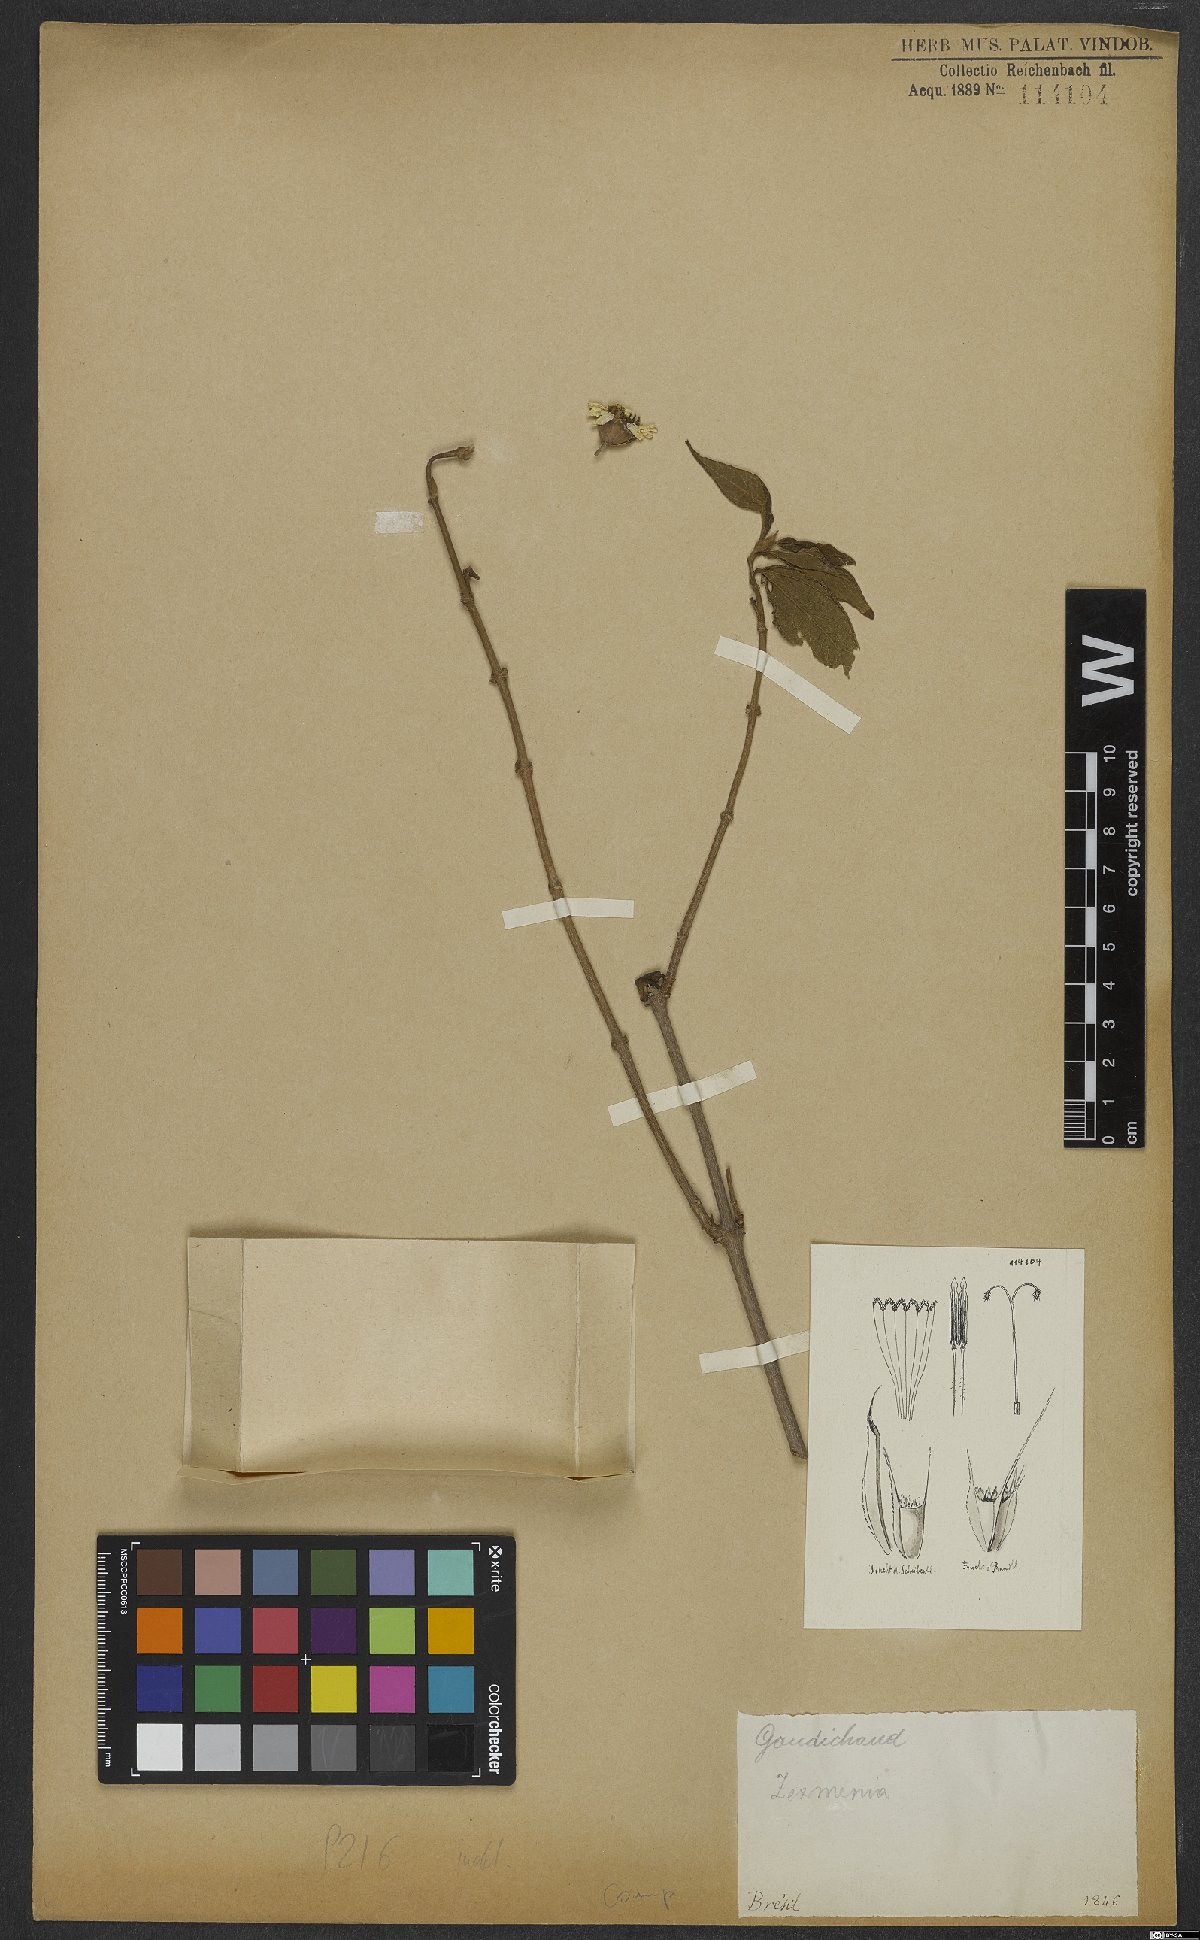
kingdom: Plantae
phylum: Tracheophyta
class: Magnoliopsida
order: Asterales
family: Asteraceae
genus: Zexmenia
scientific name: Zexmenia
